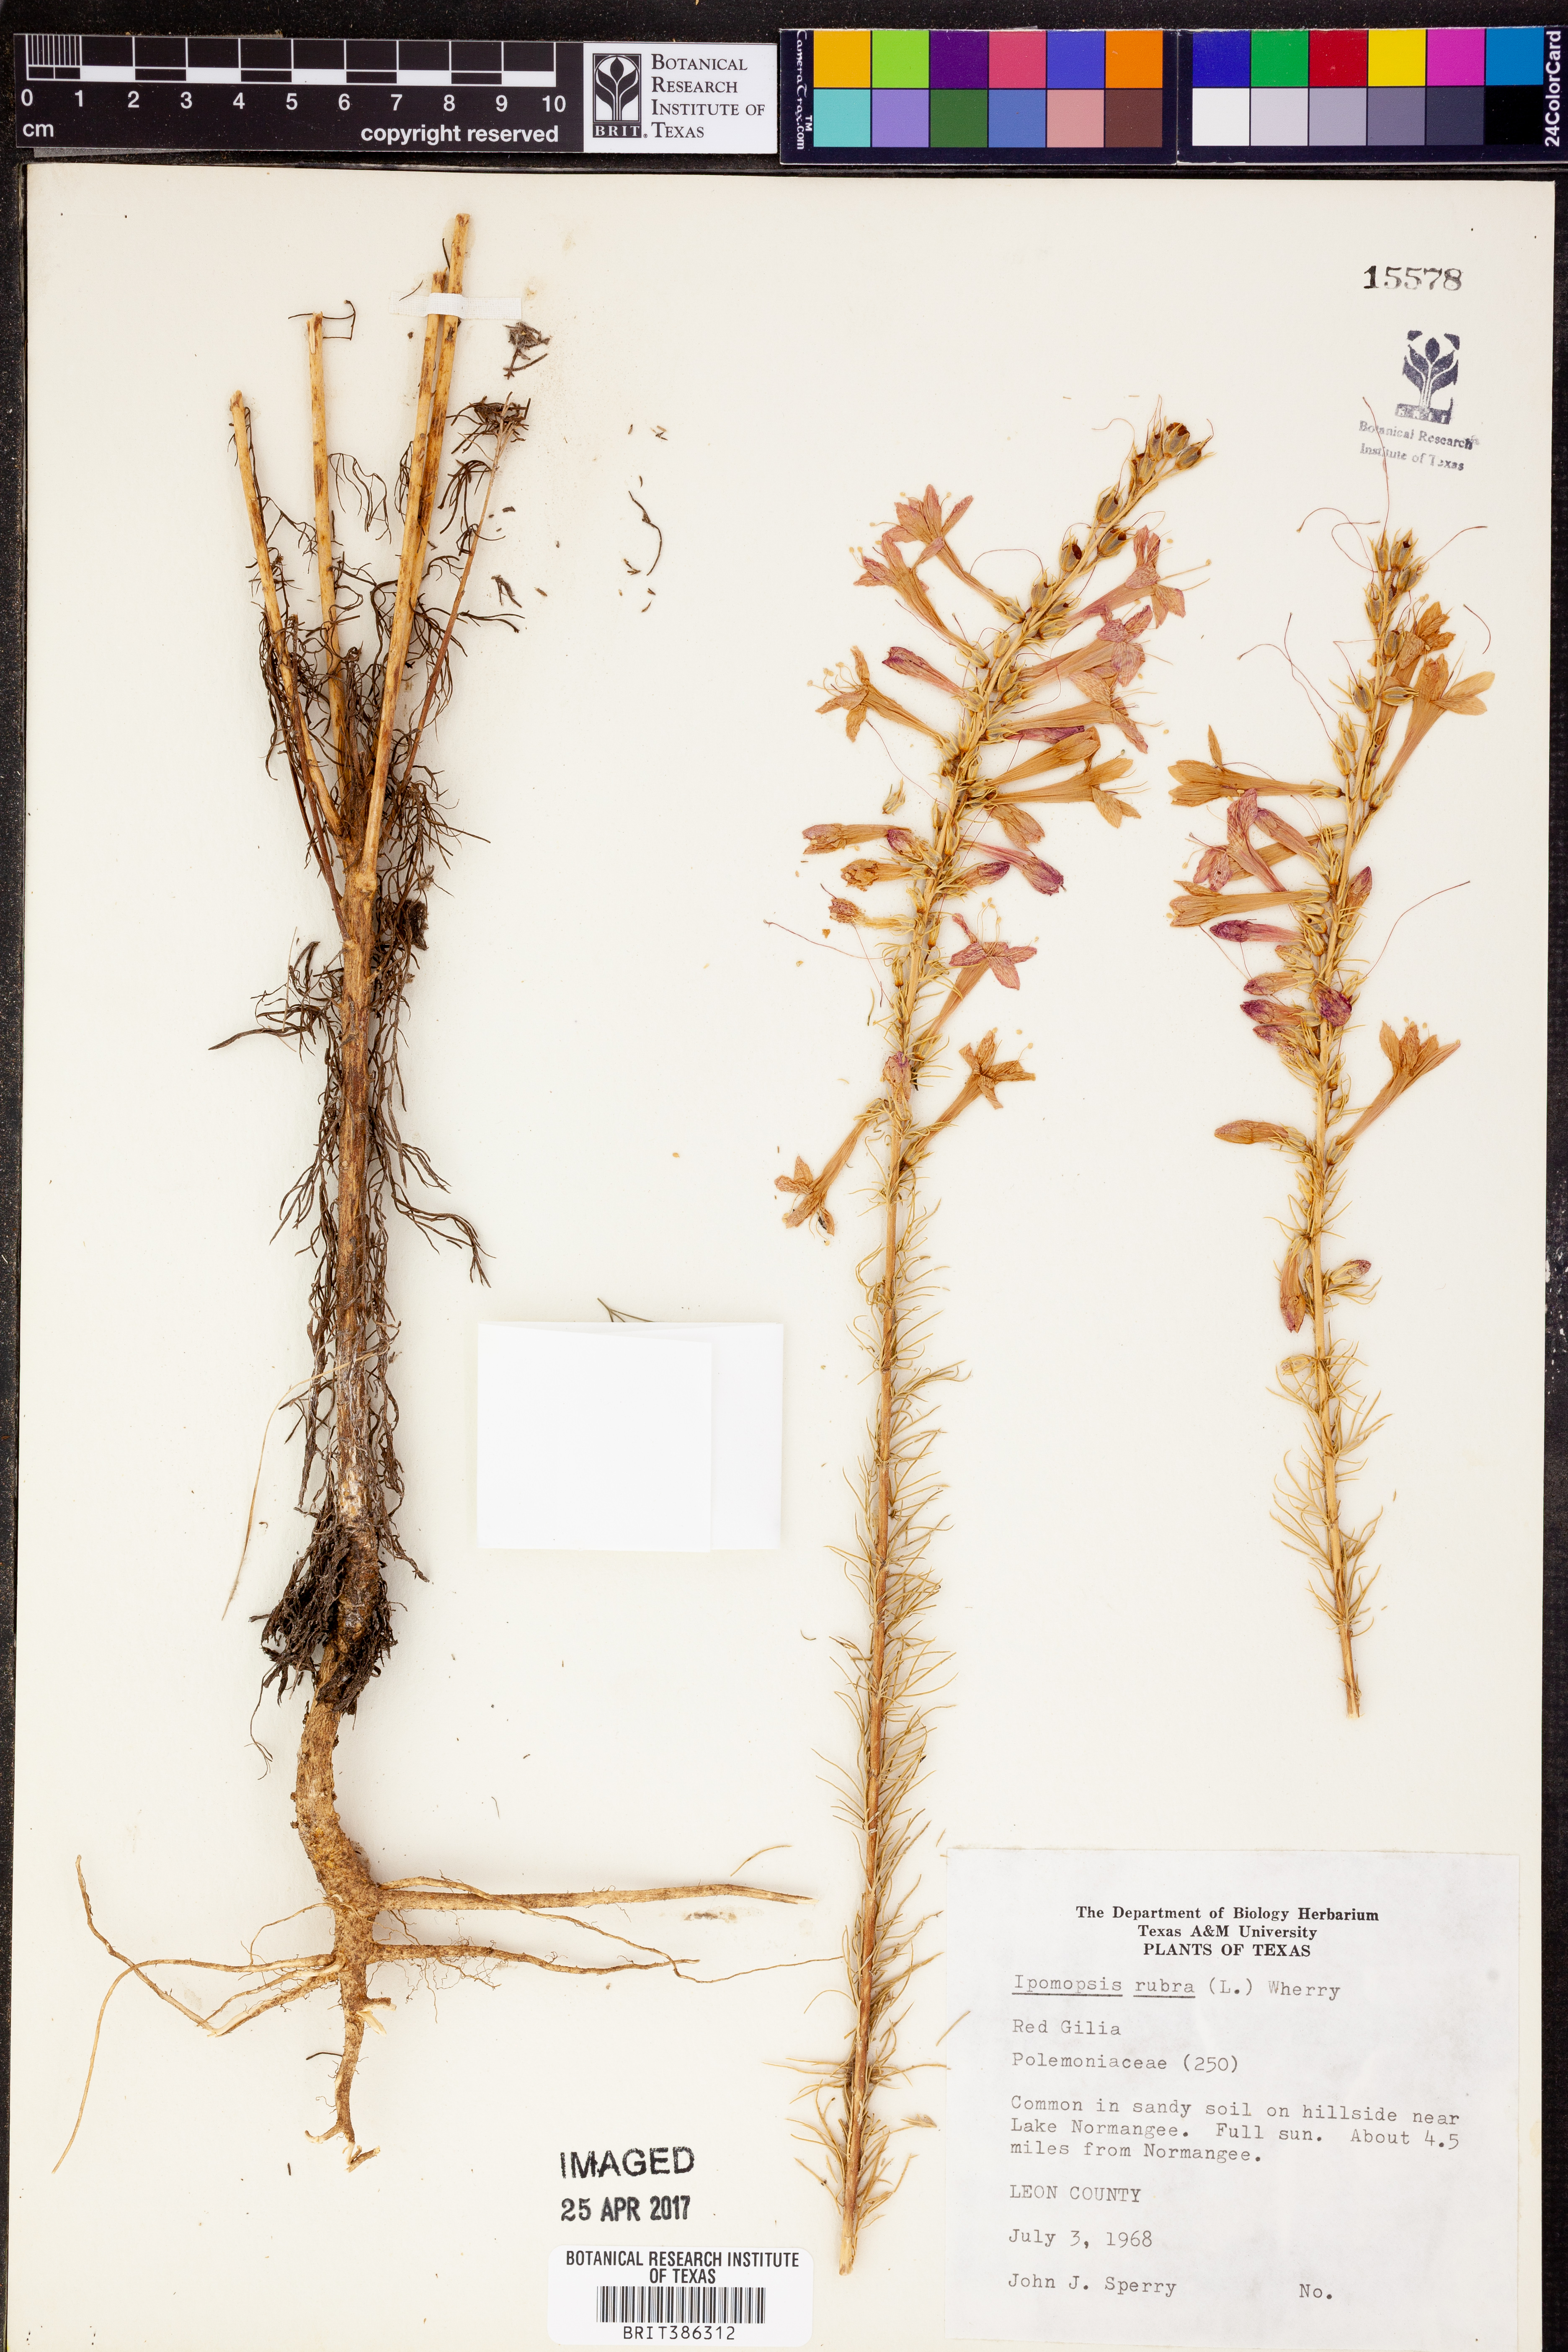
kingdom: Plantae
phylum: Tracheophyta
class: Magnoliopsida
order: Ericales
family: Polemoniaceae
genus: Ipomopsis
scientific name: Ipomopsis rubra
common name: Skyrocket
